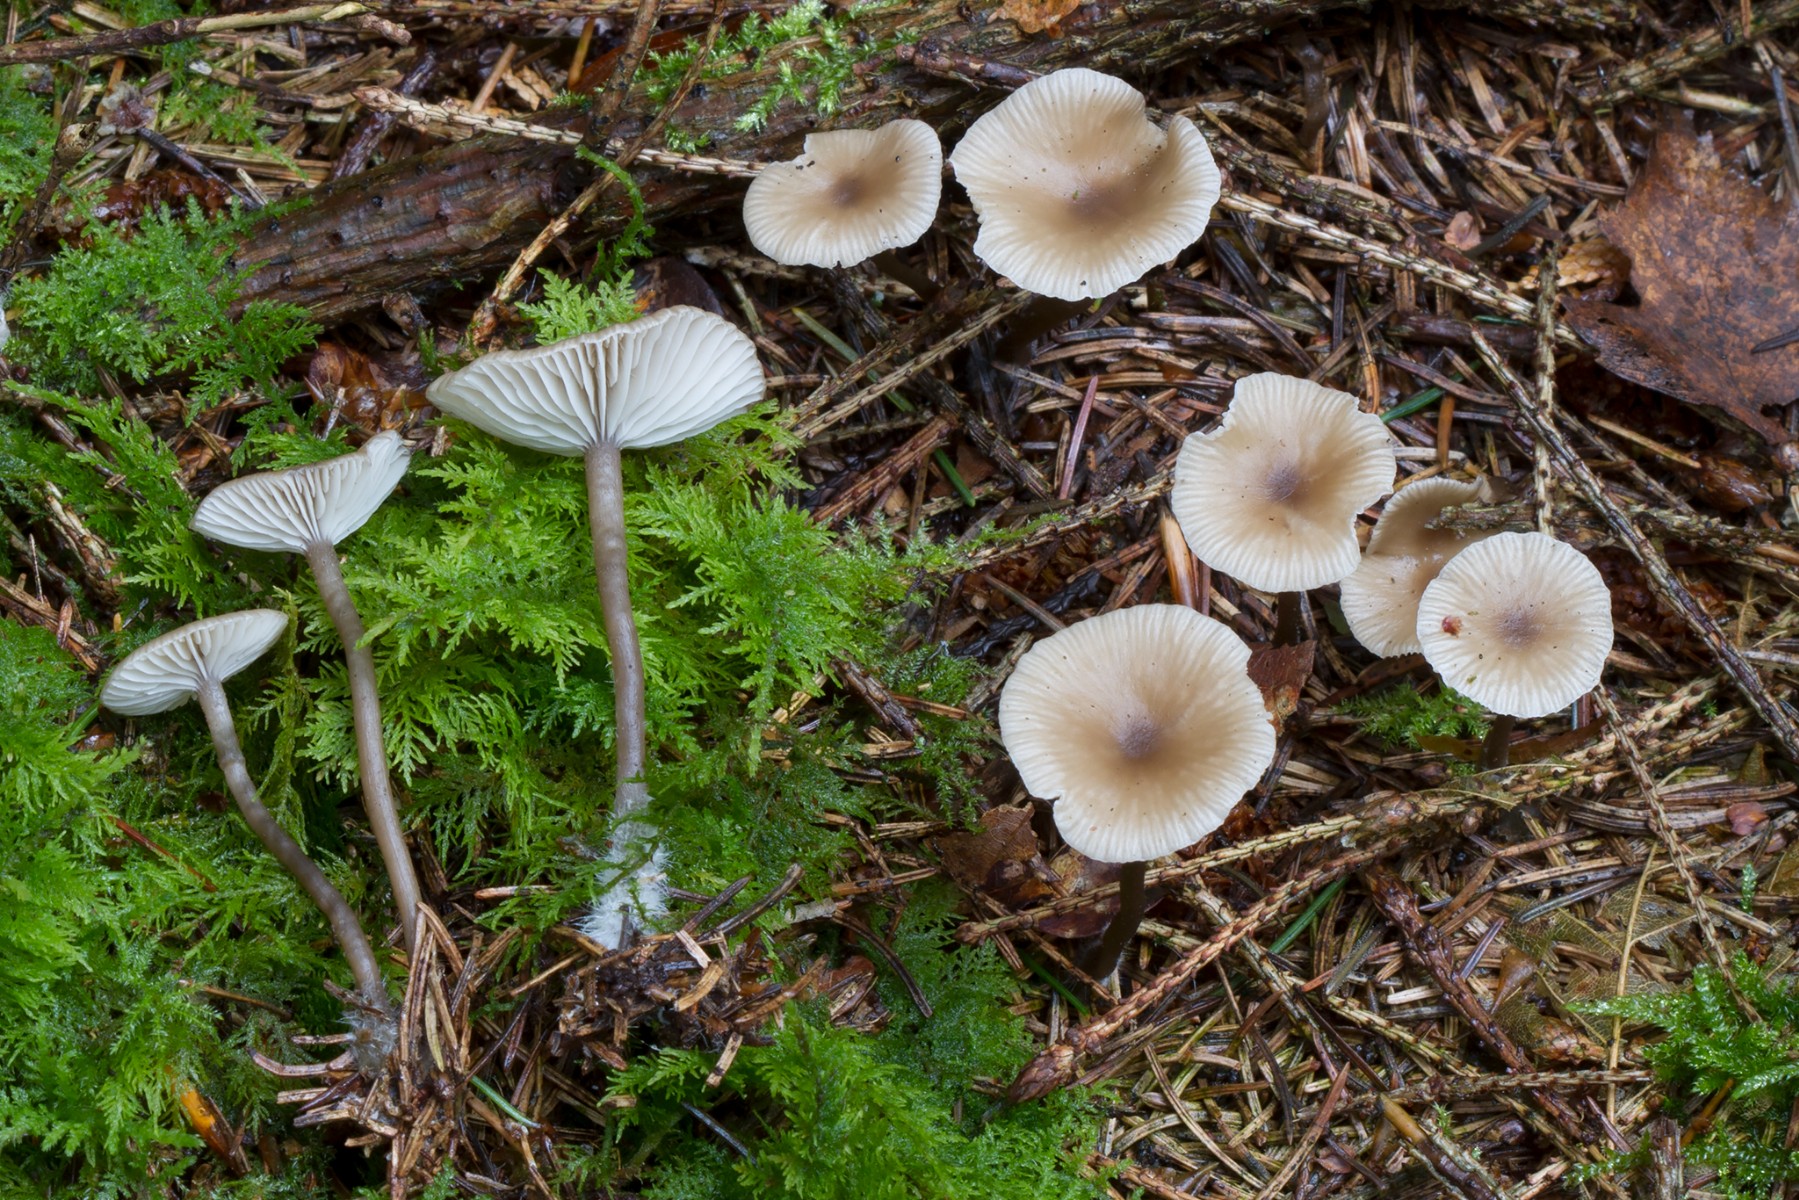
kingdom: Fungi
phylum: Basidiomycota
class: Agaricomycetes
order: Agaricales
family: Tricholomataceae
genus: Clitocybe
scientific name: Clitocybe vibecina
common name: randstribet tragthat
